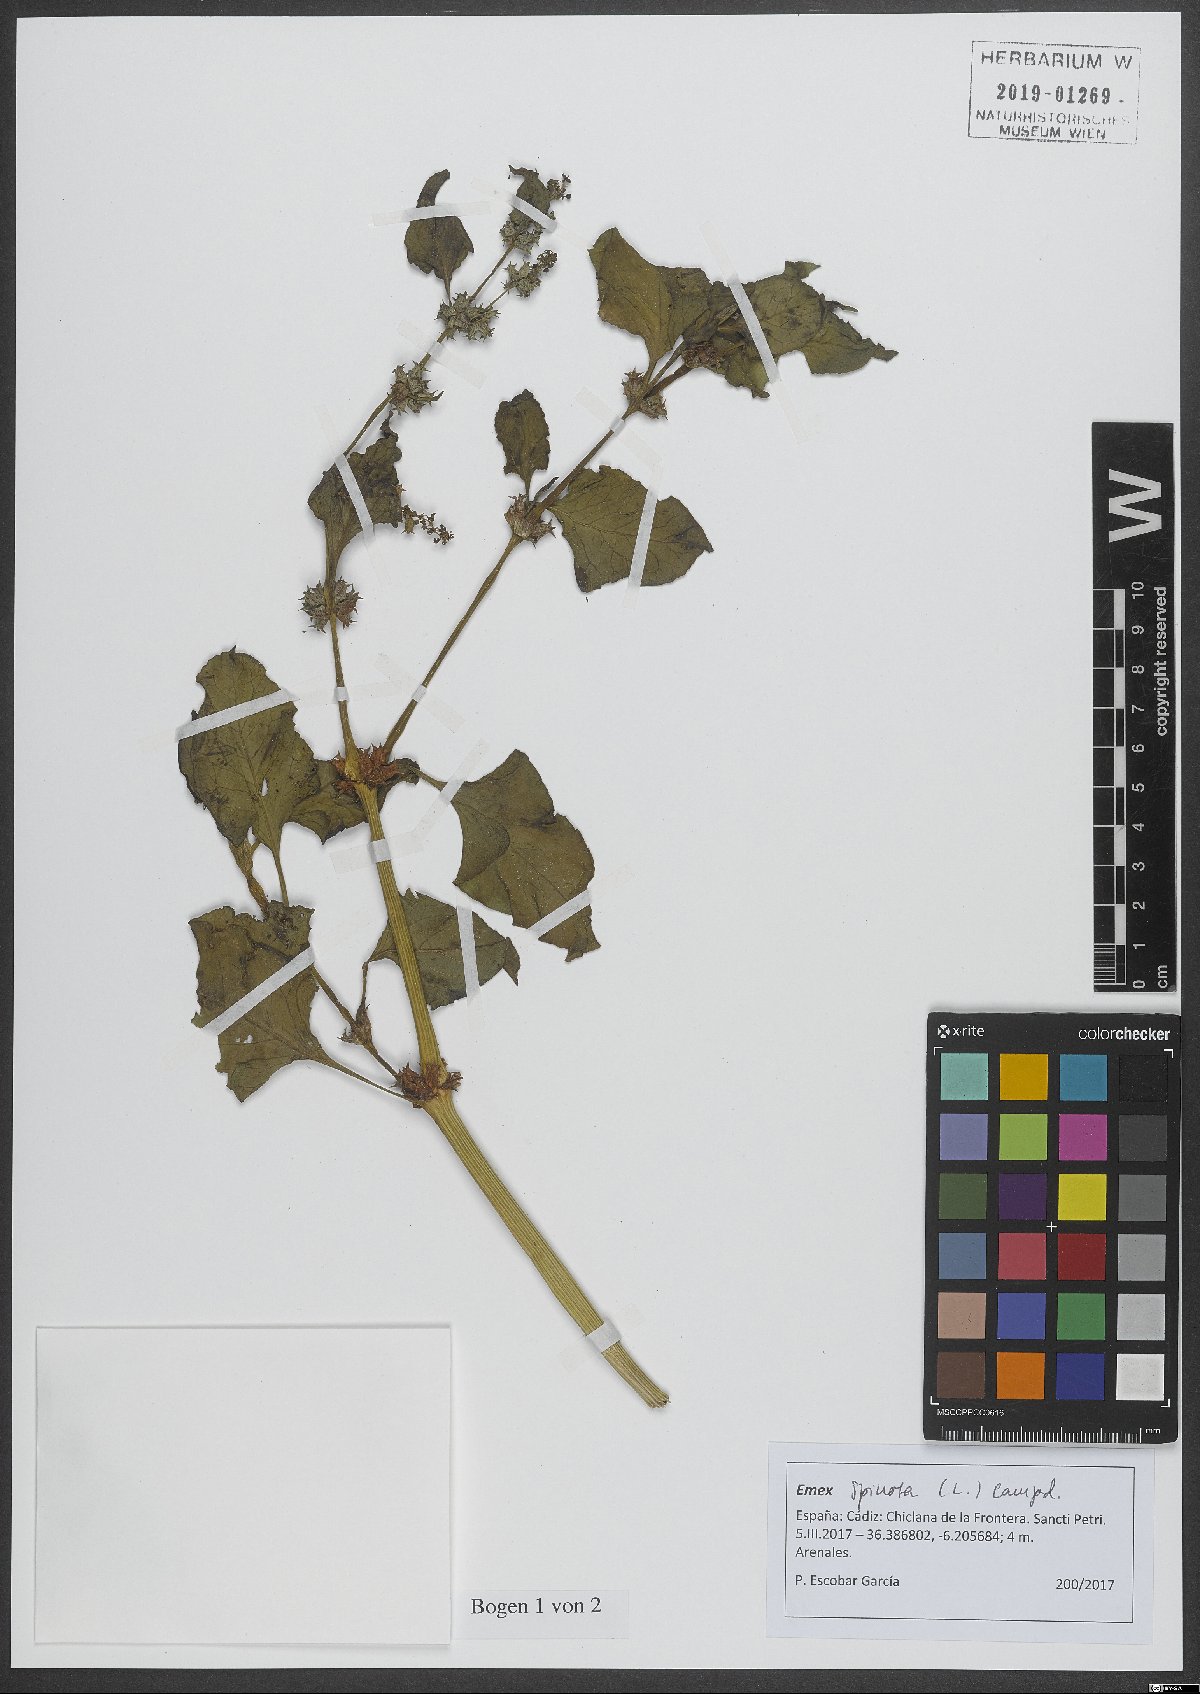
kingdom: Plantae
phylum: Tracheophyta
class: Magnoliopsida
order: Caryophyllales
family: Polygonaceae
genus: Rumex
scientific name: Rumex spinosus
